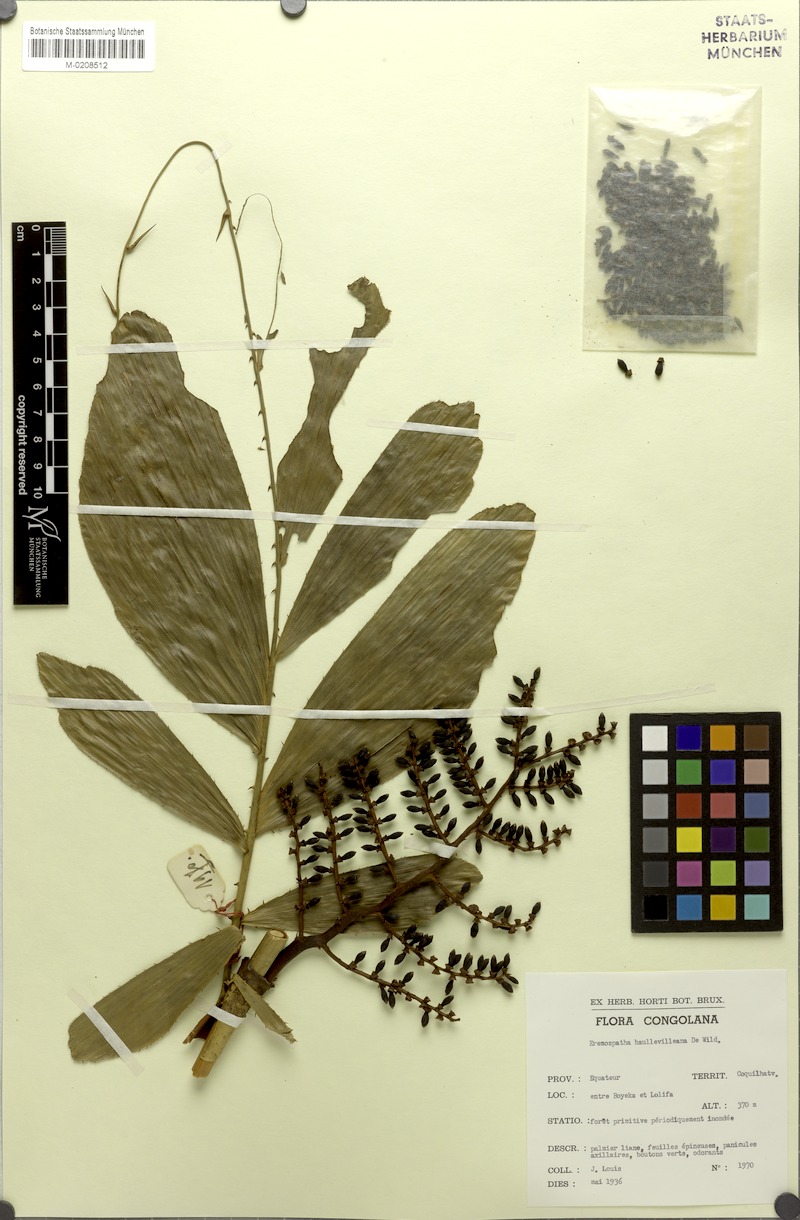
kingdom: Plantae
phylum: Tracheophyta
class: Liliopsida
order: Arecales
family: Arecaceae
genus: Eremospatha
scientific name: Eremospatha haullevilleana
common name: Rattan
